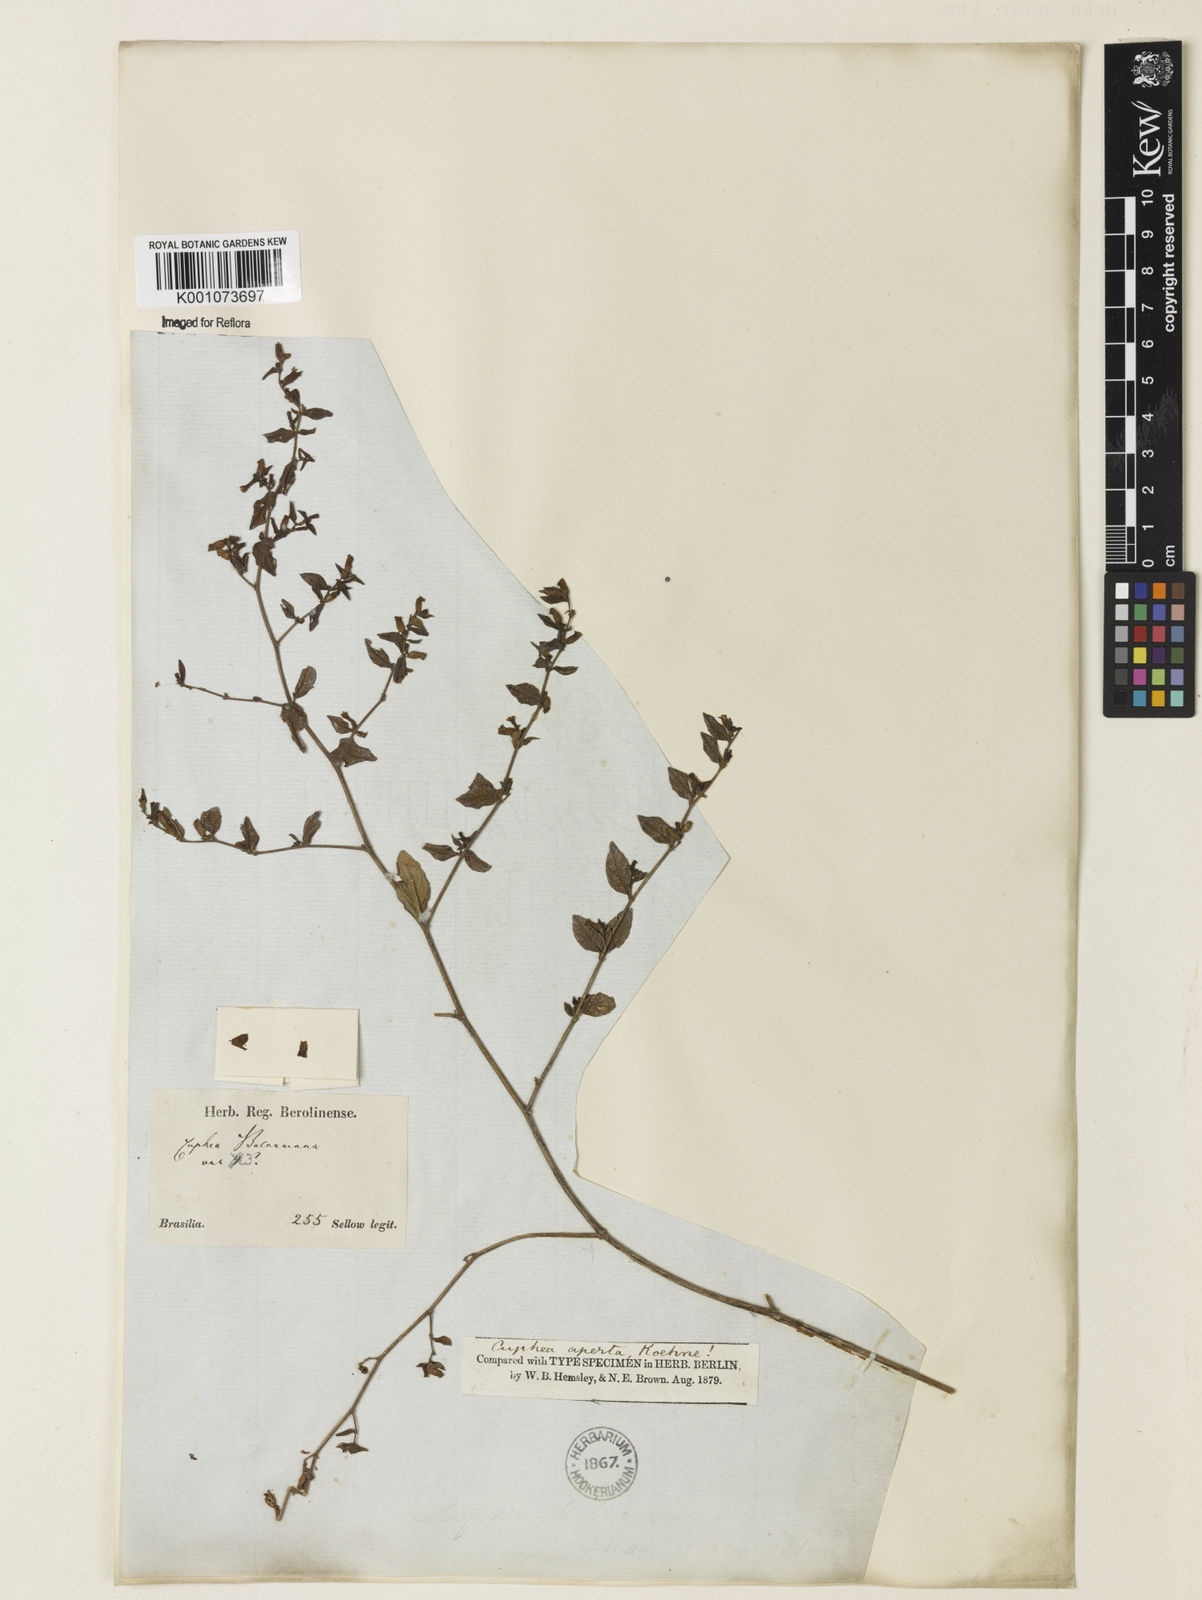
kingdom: Plantae
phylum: Tracheophyta
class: Magnoliopsida
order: Myrtales
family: Lythraceae
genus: Cuphea
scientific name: Cuphea aperta
